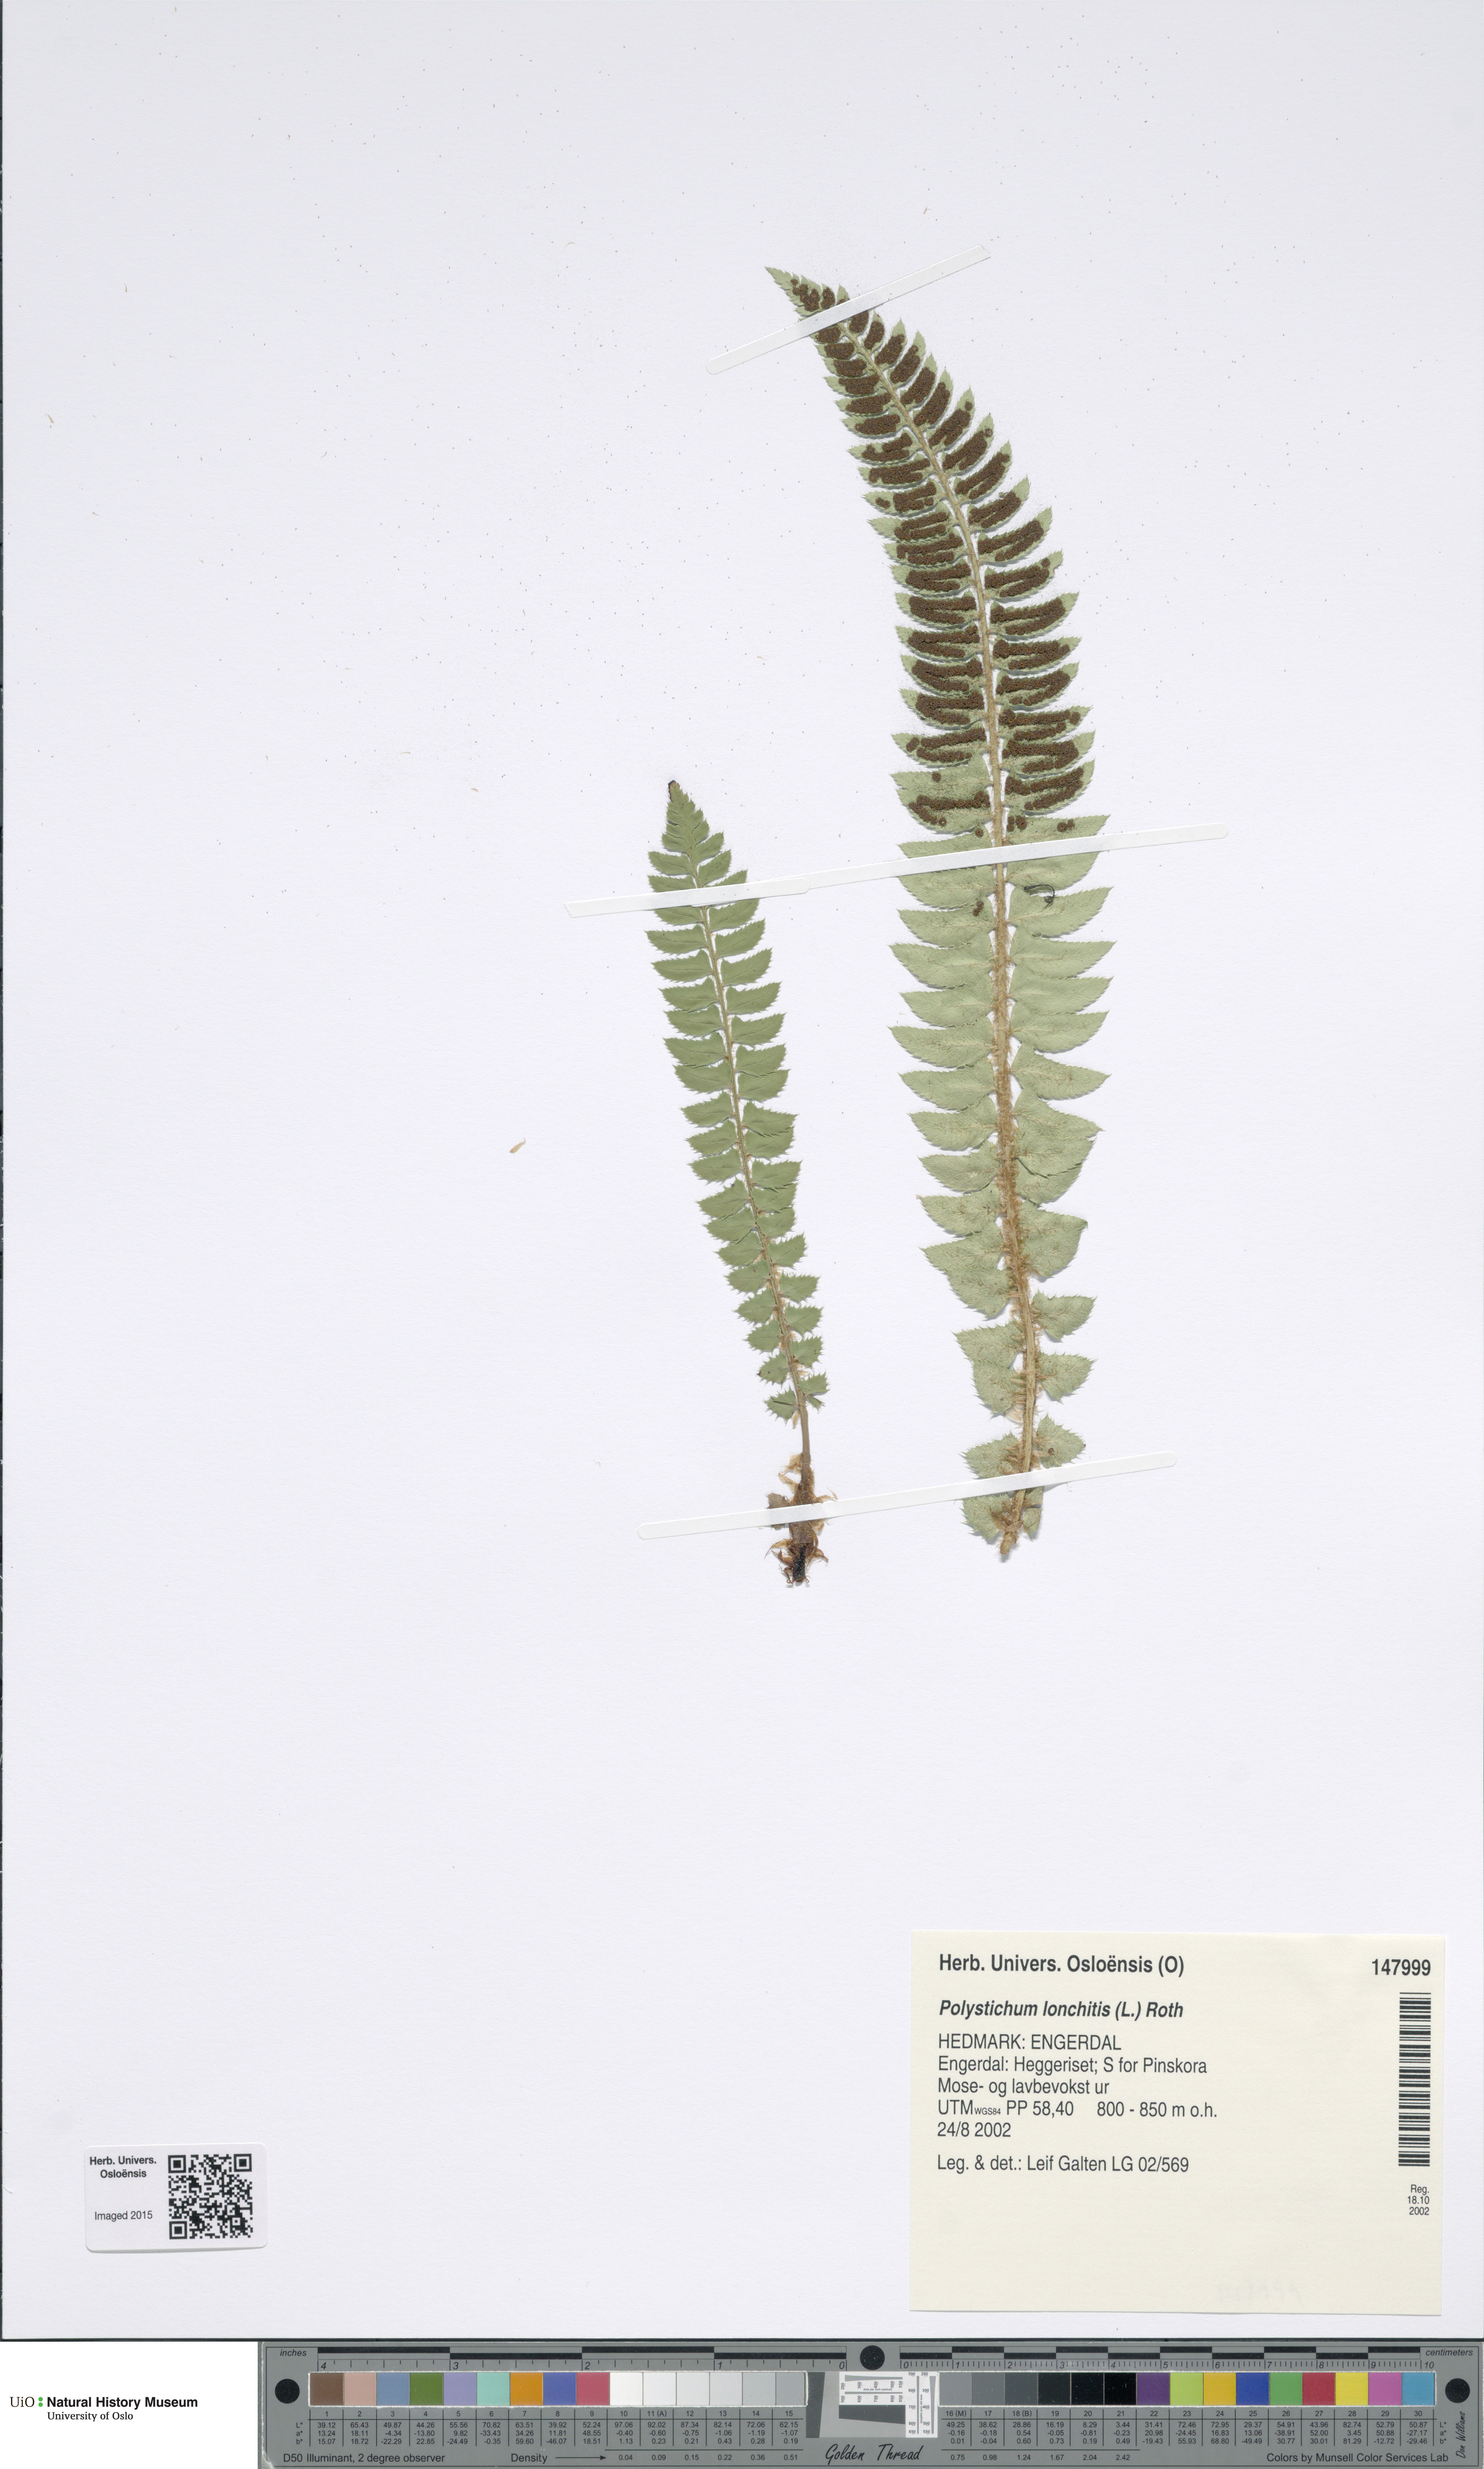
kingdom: Plantae
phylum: Tracheophyta
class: Polypodiopsida
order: Polypodiales
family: Dryopteridaceae
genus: Polystichum
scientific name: Polystichum lonchitis
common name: Holly fern
